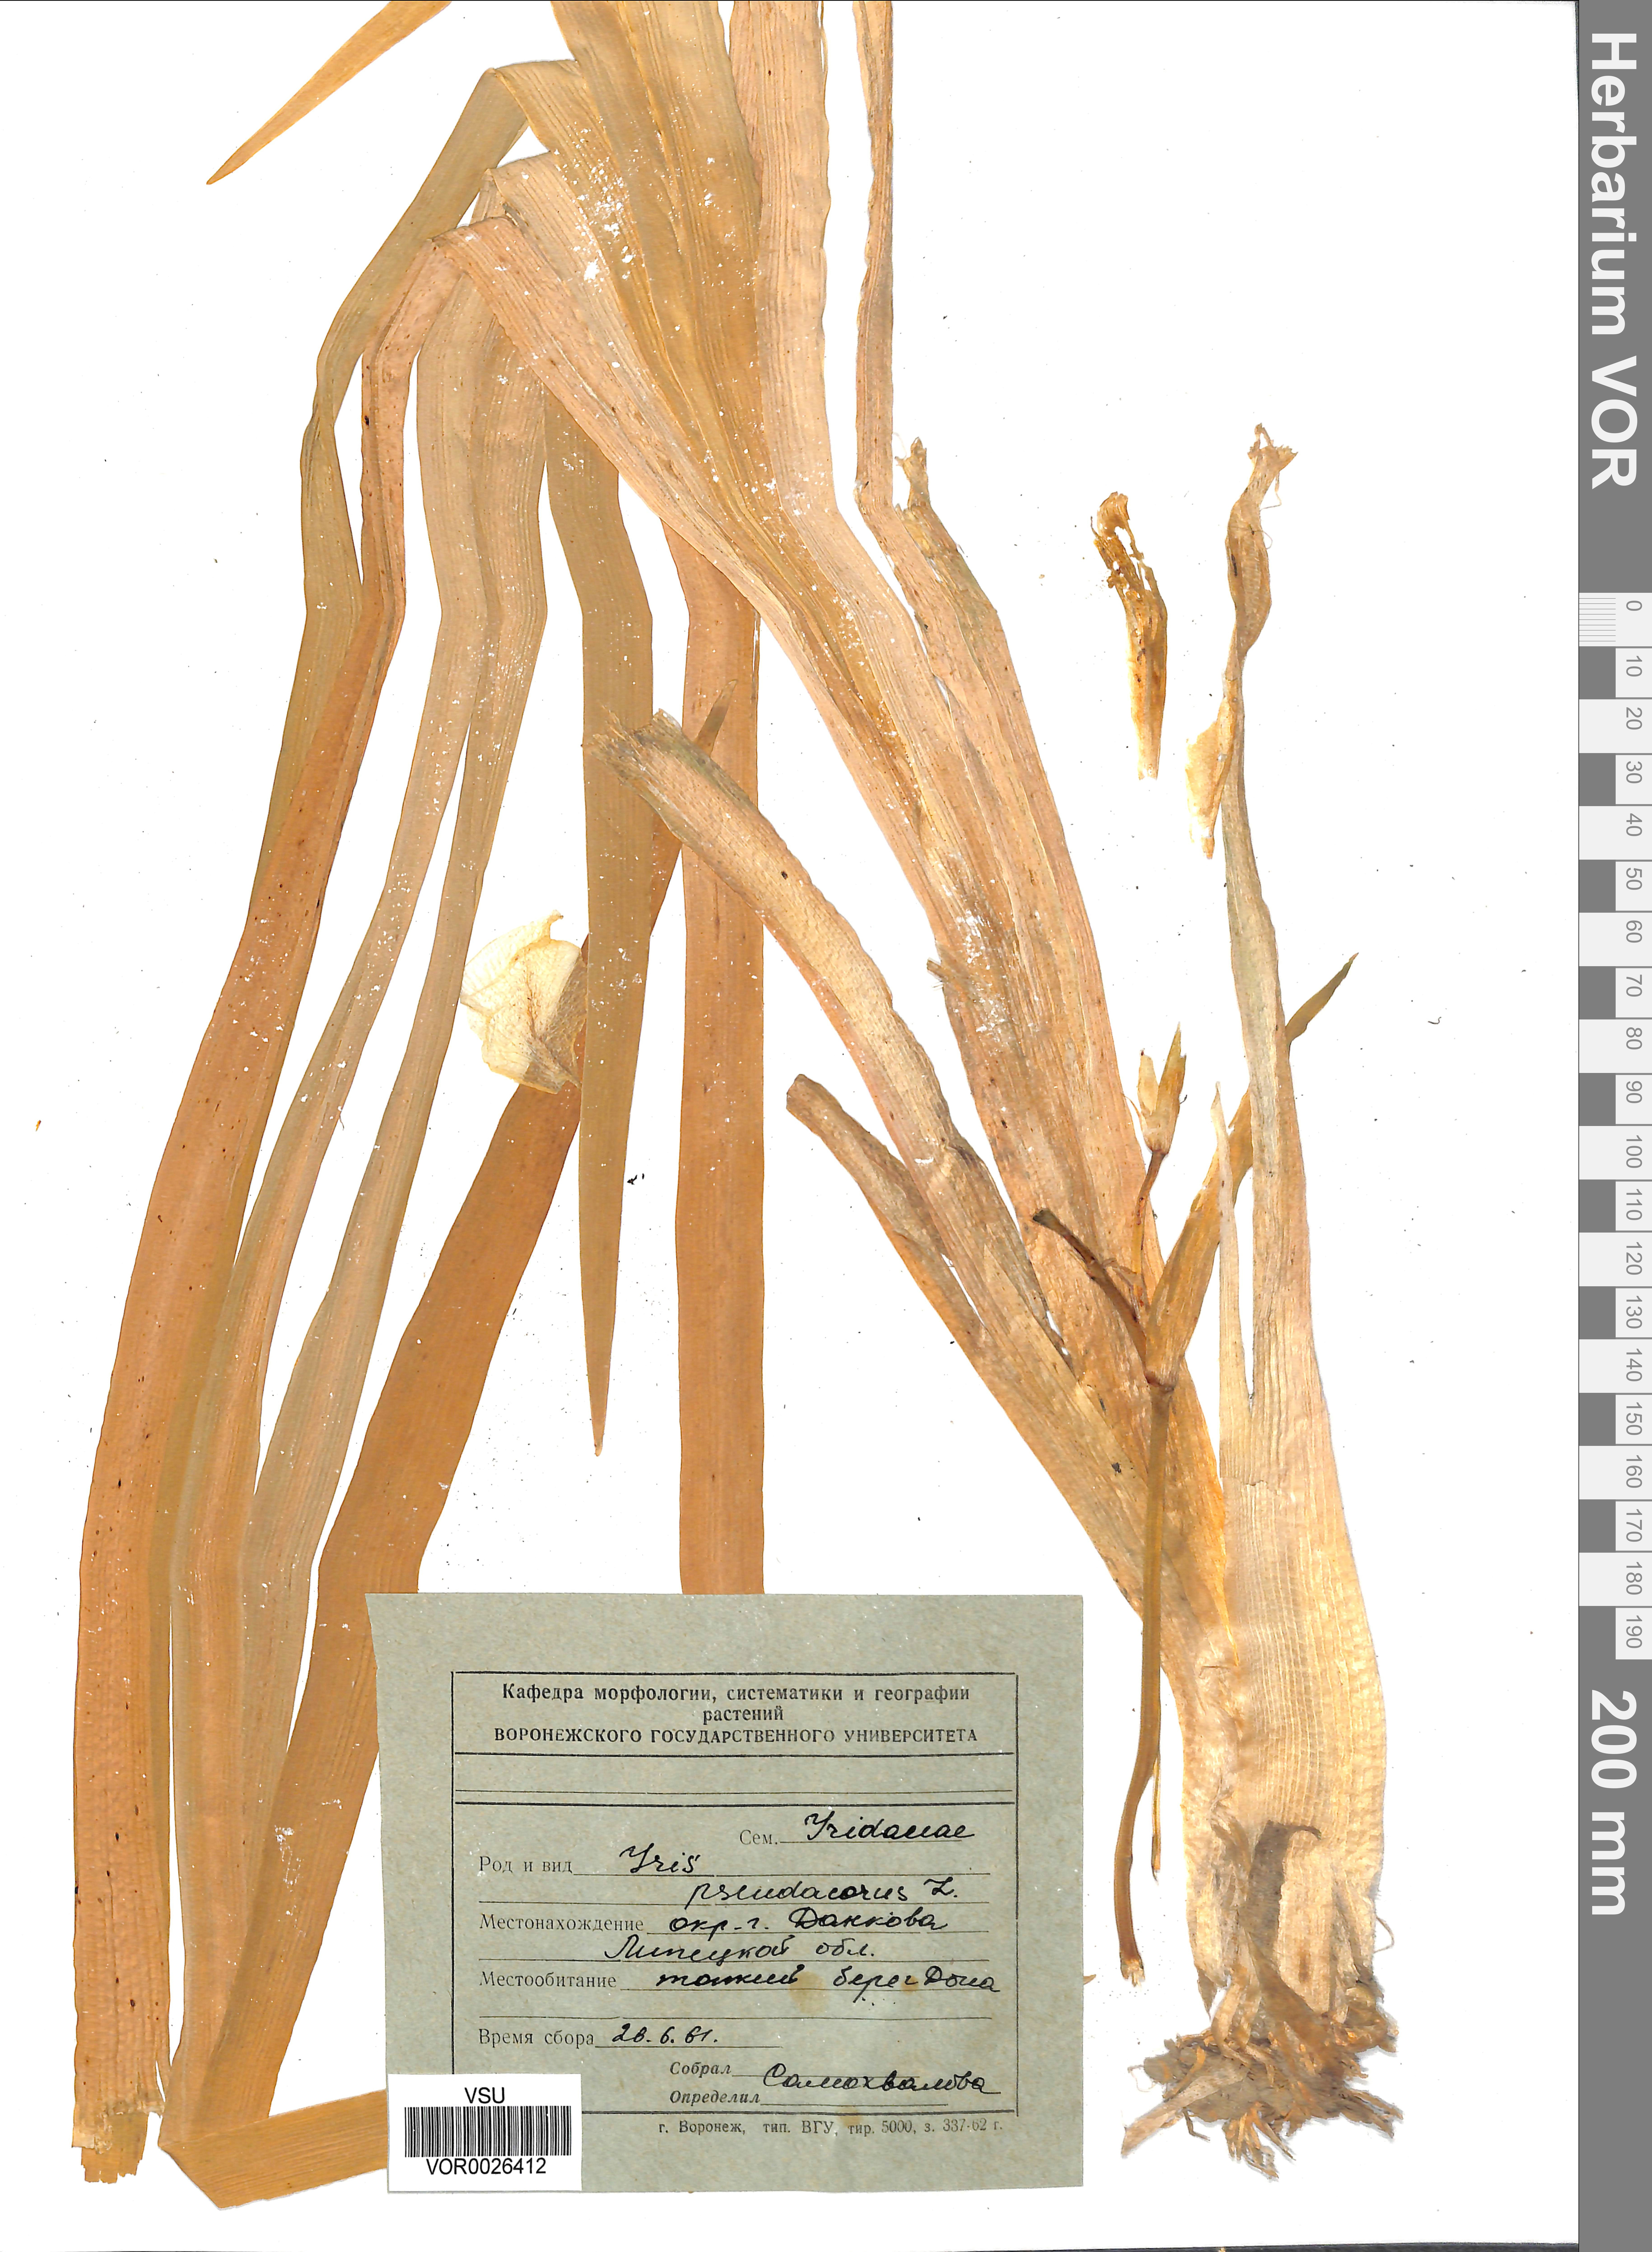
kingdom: Plantae
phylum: Tracheophyta
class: Liliopsida
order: Asparagales
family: Iridaceae
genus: Iris
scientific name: Iris pseudacorus
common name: Yellow flag
